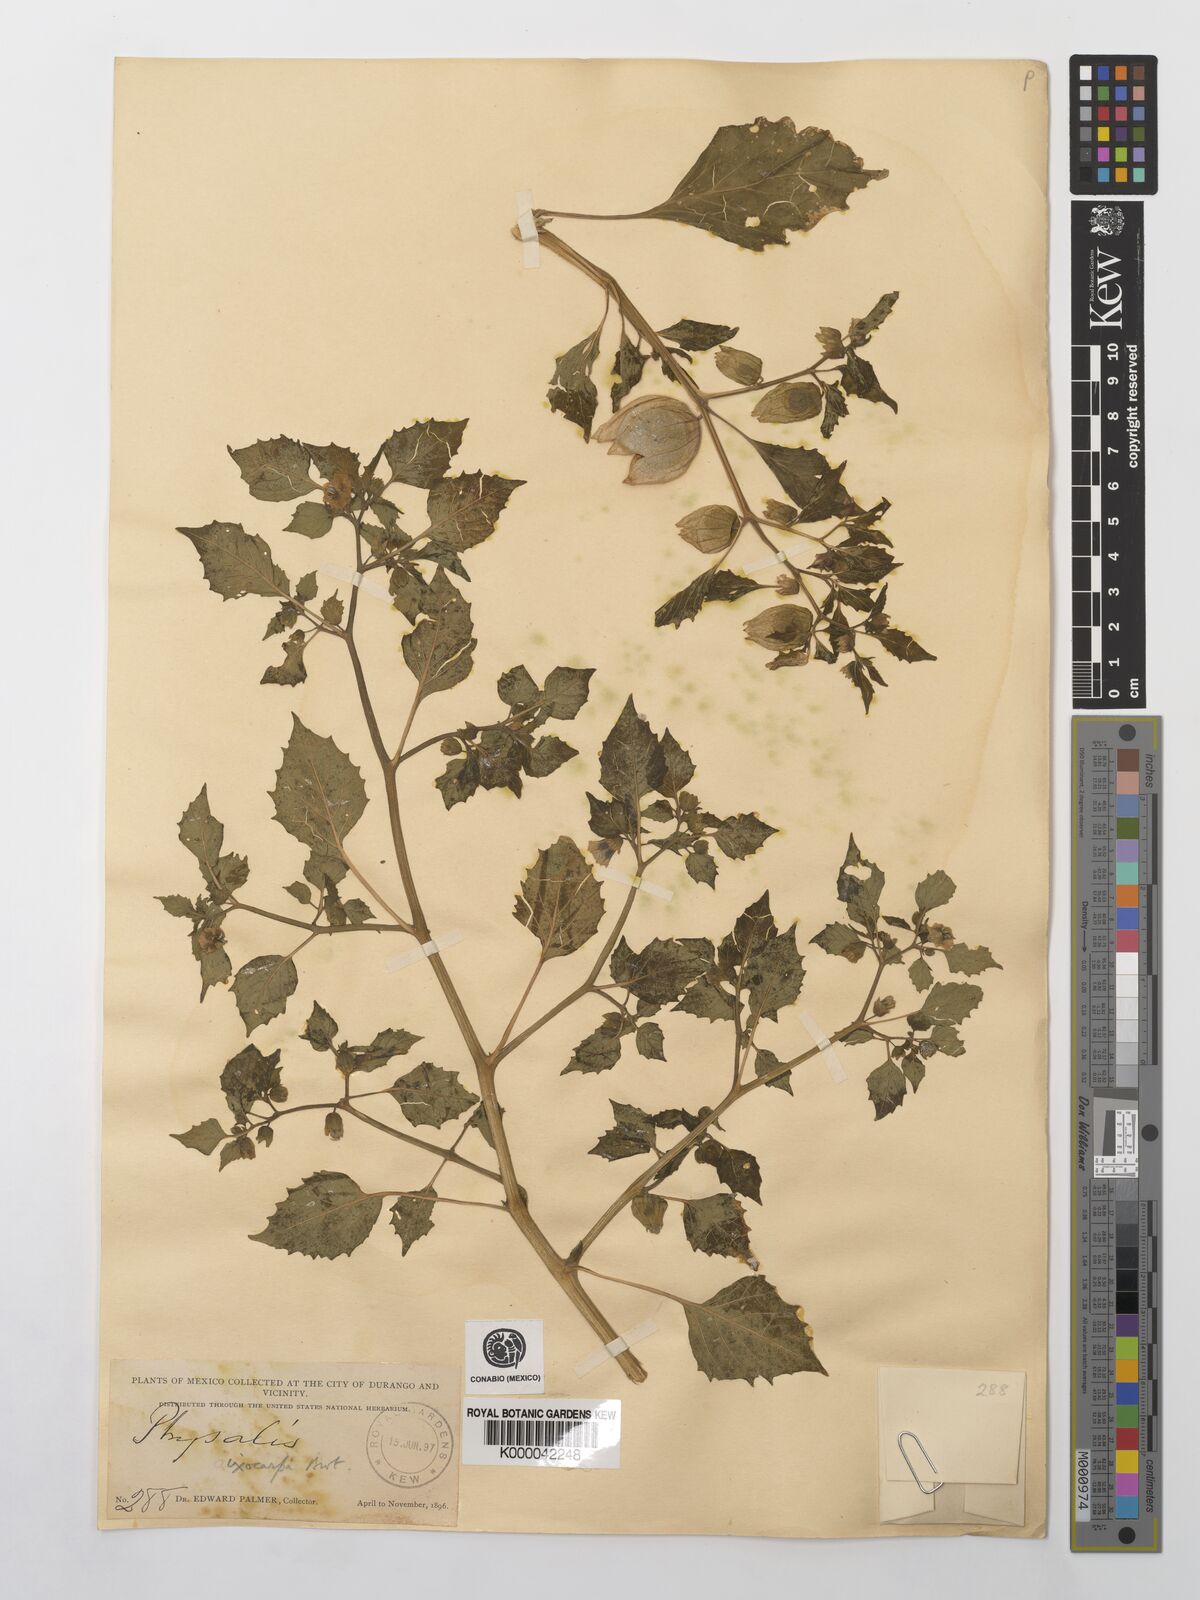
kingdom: Plantae
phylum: Tracheophyta
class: Magnoliopsida
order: Solanales
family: Solanaceae
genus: Physalis
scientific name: Physalis philadelphica
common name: Husk-tomato
